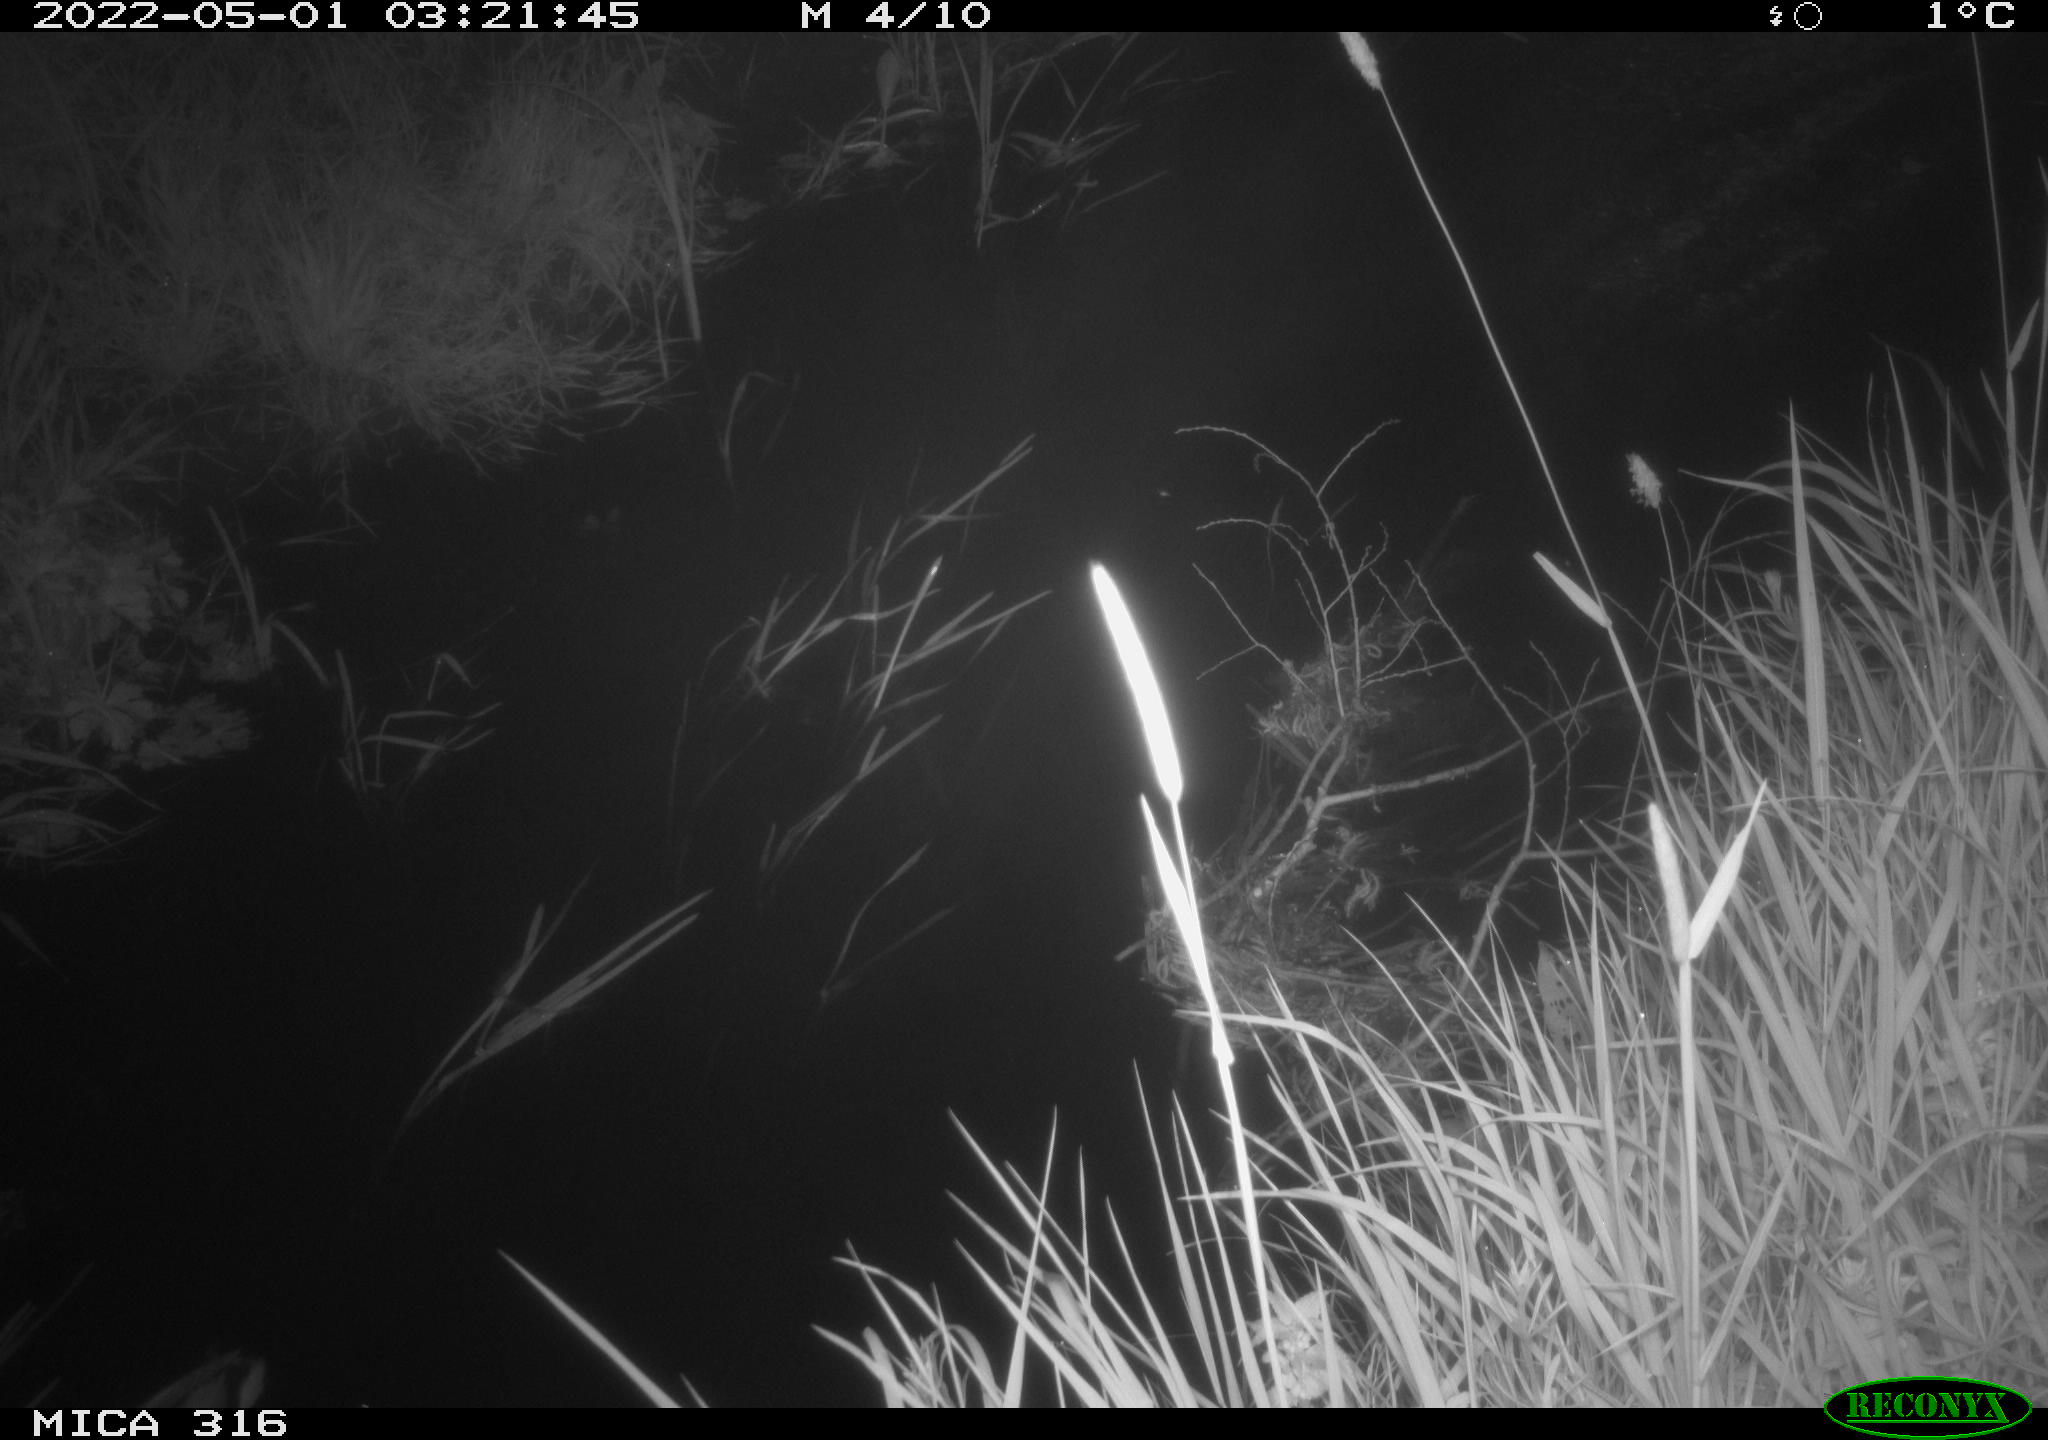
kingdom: Animalia
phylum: Chordata
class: Aves
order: Anseriformes
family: Anatidae
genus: Anas
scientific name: Anas platyrhynchos
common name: Mallard
